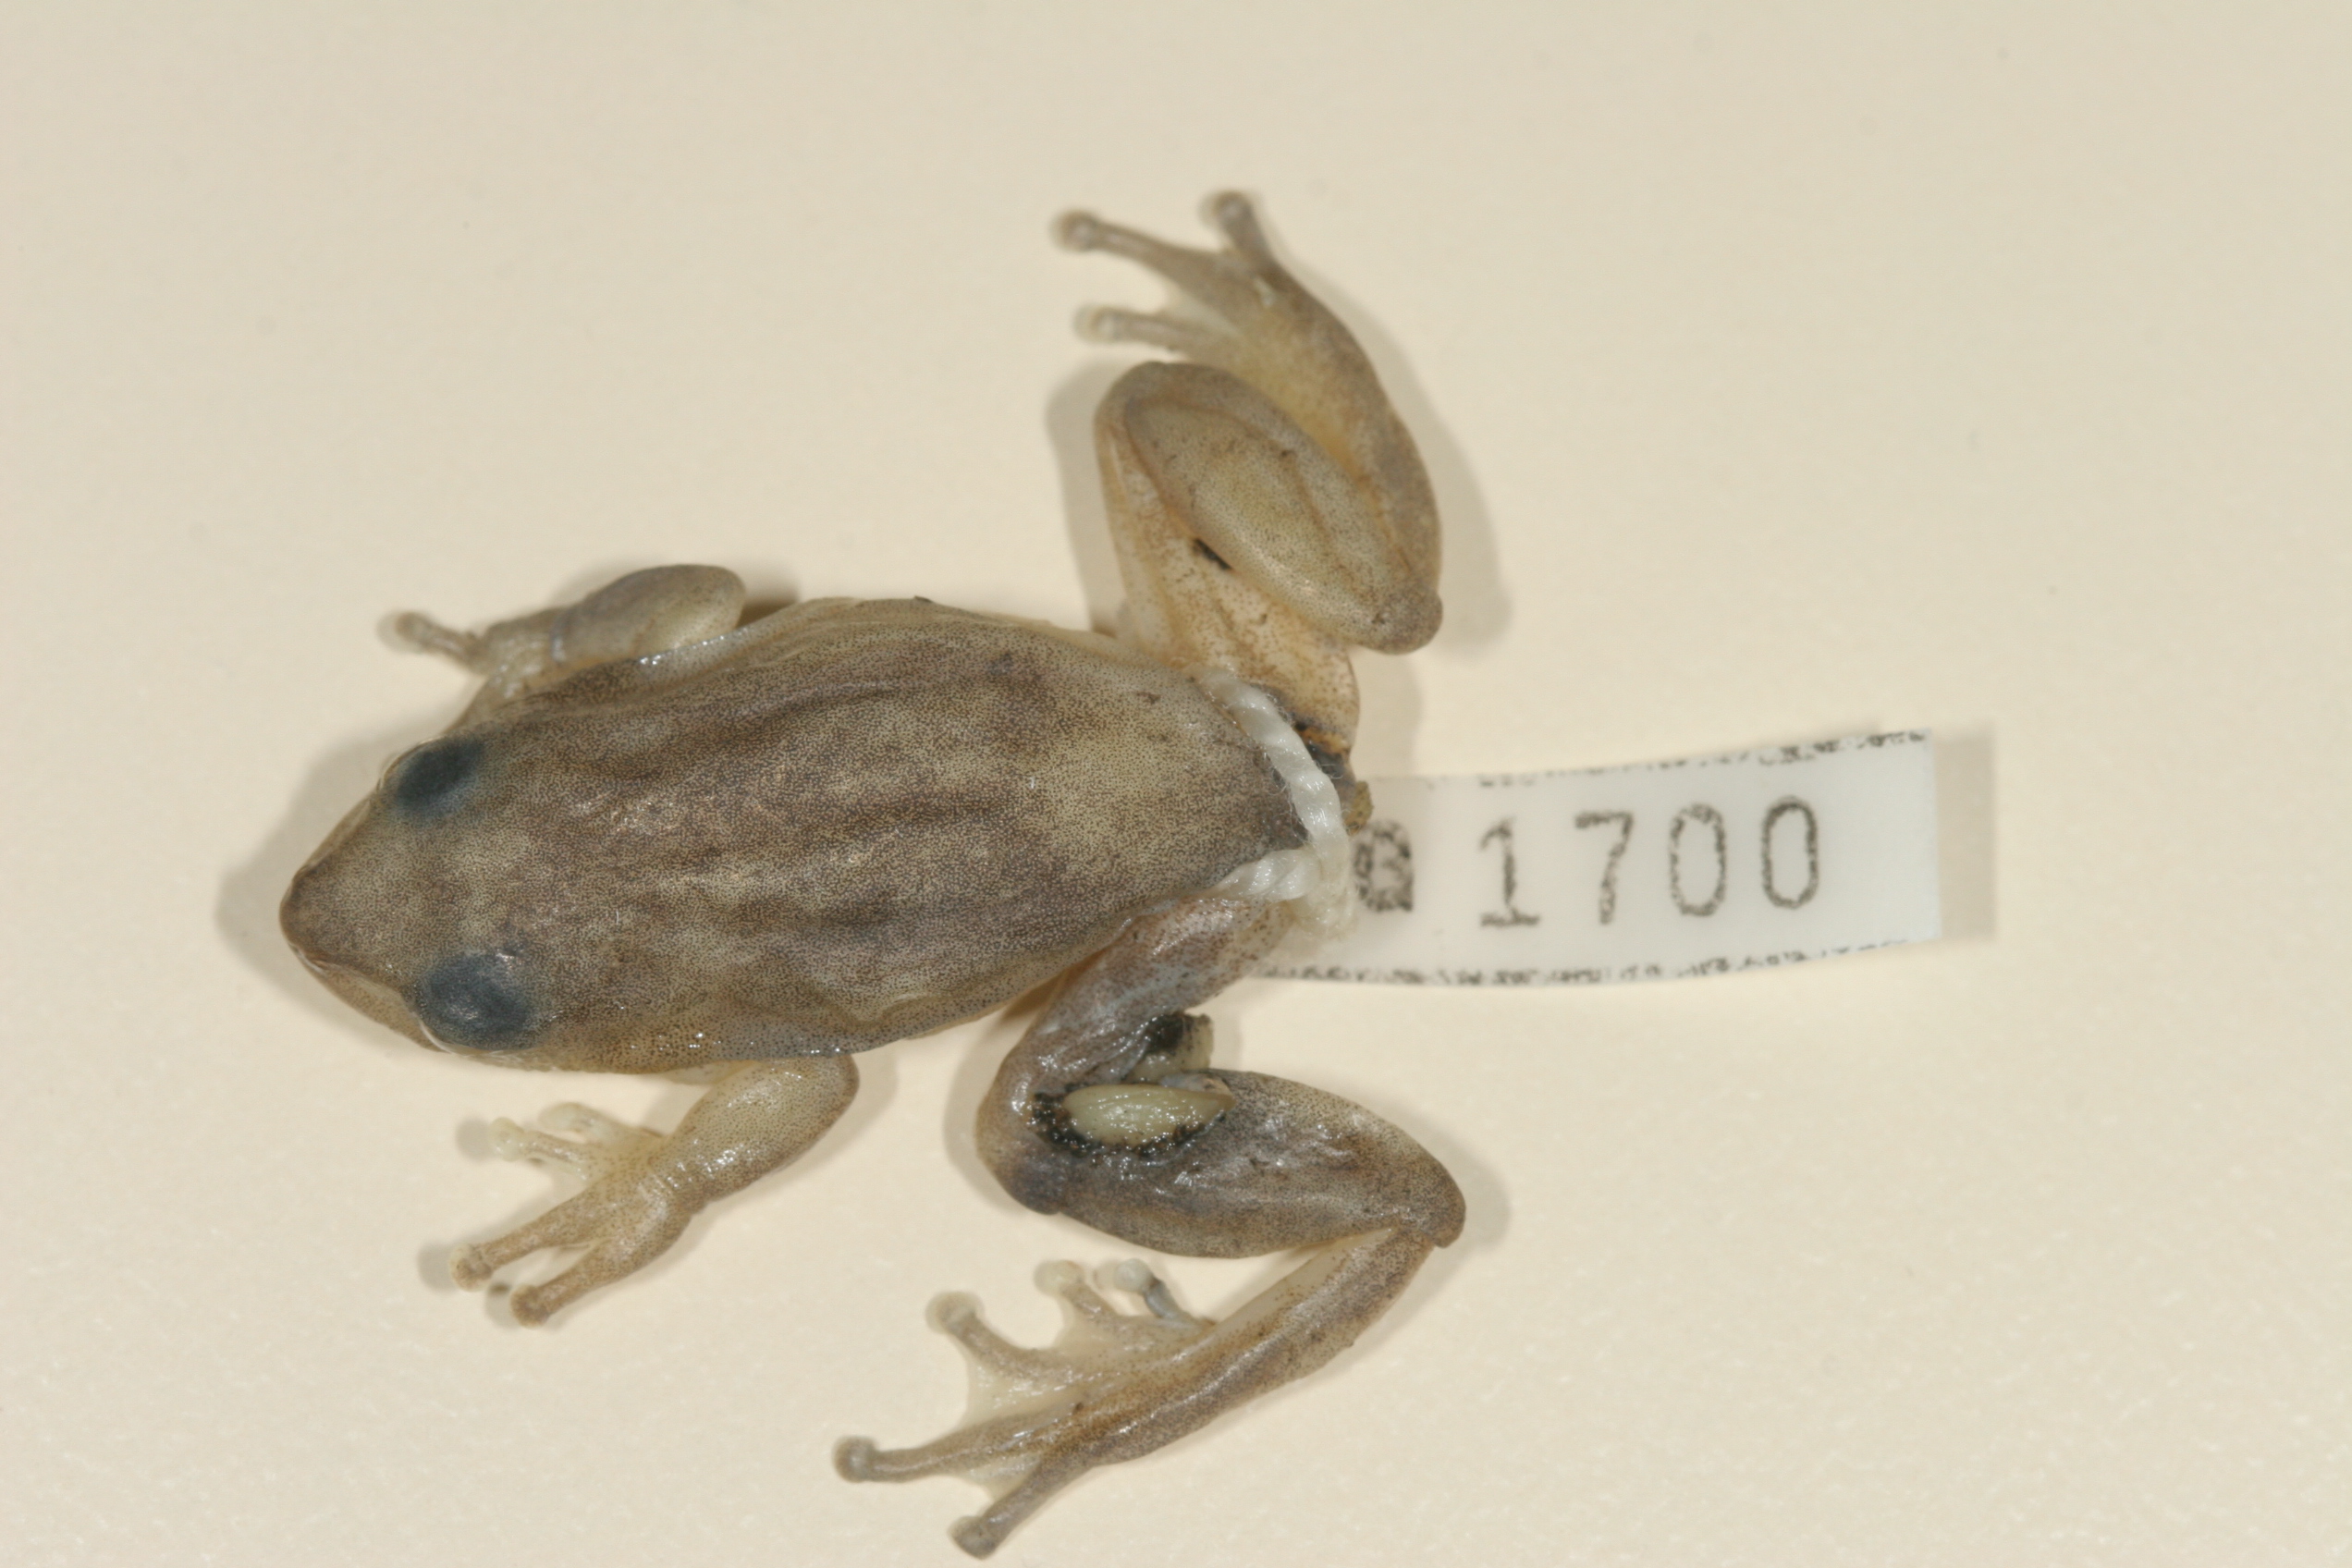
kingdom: Animalia
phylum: Chordata
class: Amphibia
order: Anura
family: Hyperoliidae
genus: Hyperolius
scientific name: Hyperolius tuberilinguis
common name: Tinker reed frog
